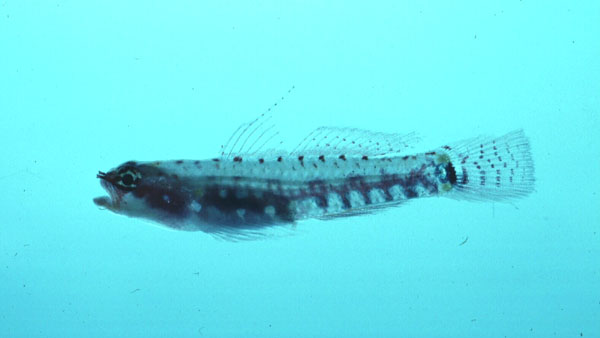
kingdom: Animalia
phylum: Chordata
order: Perciformes
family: Gobiidae
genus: Eviota
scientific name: Eviota sebreei
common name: Sebree's pygmy goby
